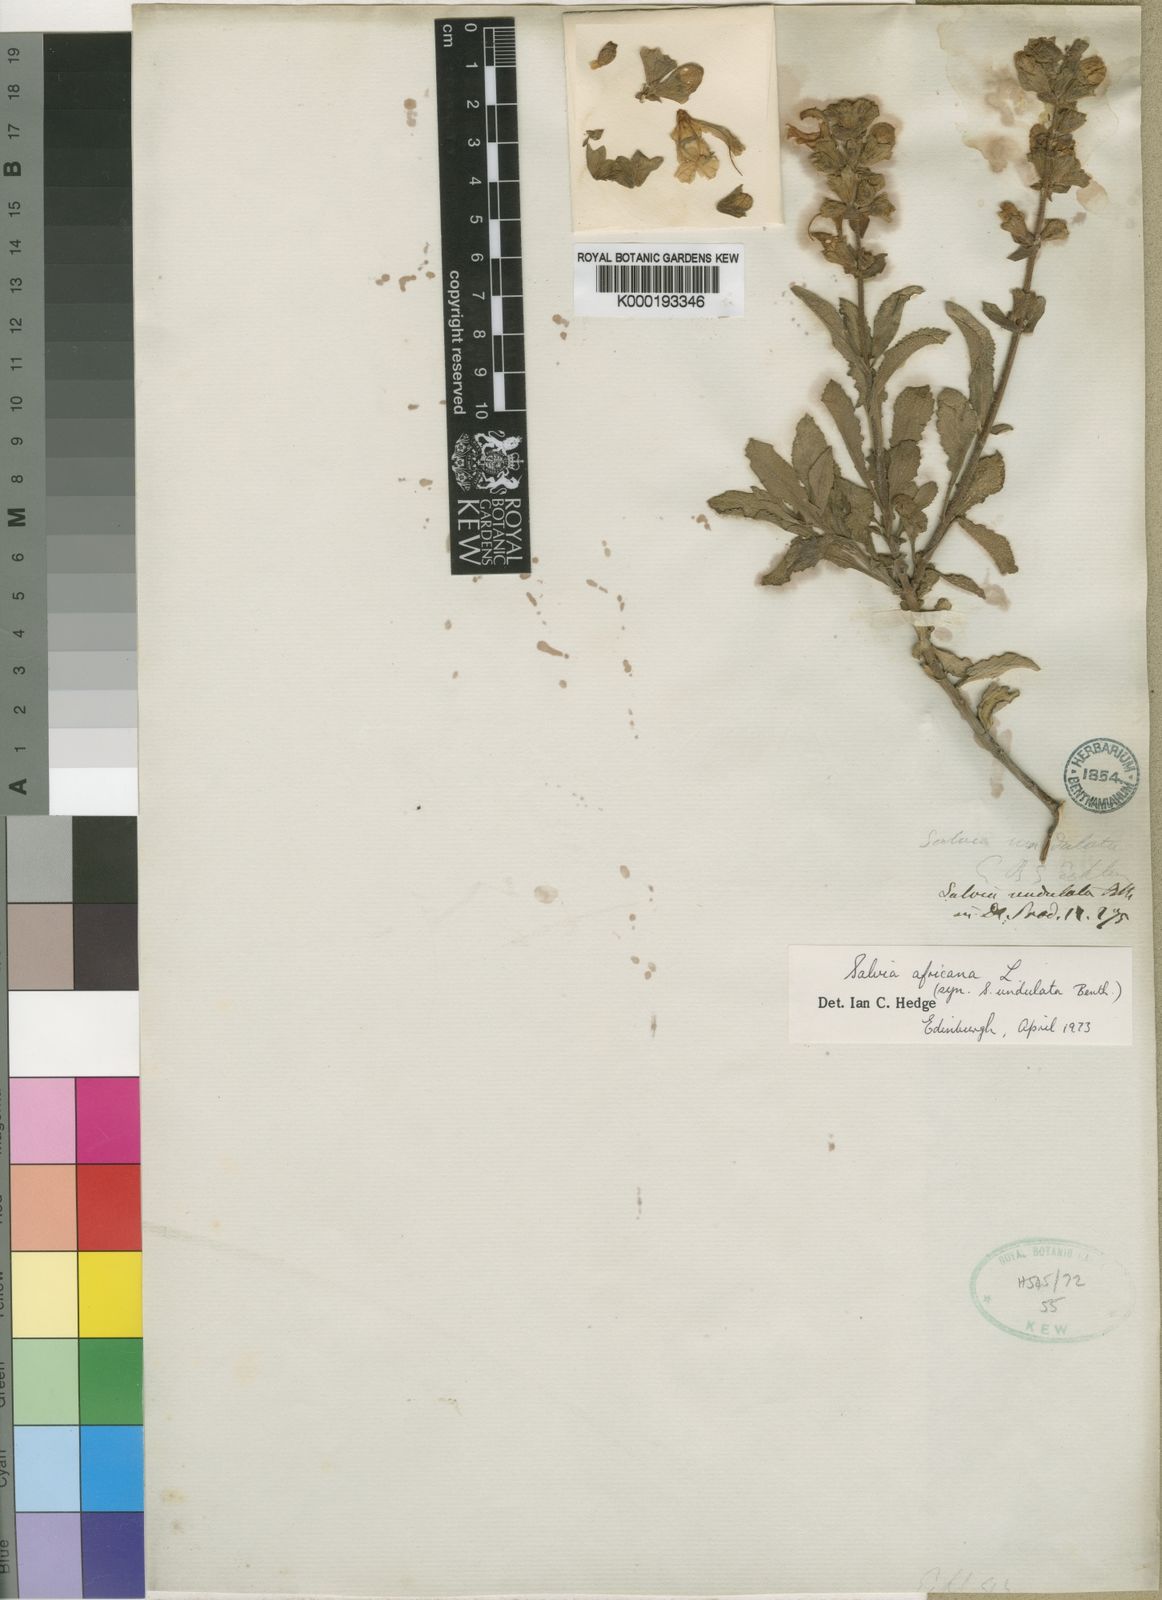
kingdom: Plantae
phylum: Tracheophyta
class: Magnoliopsida
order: Lamiales
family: Lamiaceae
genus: Salvia
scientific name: Salvia africana
